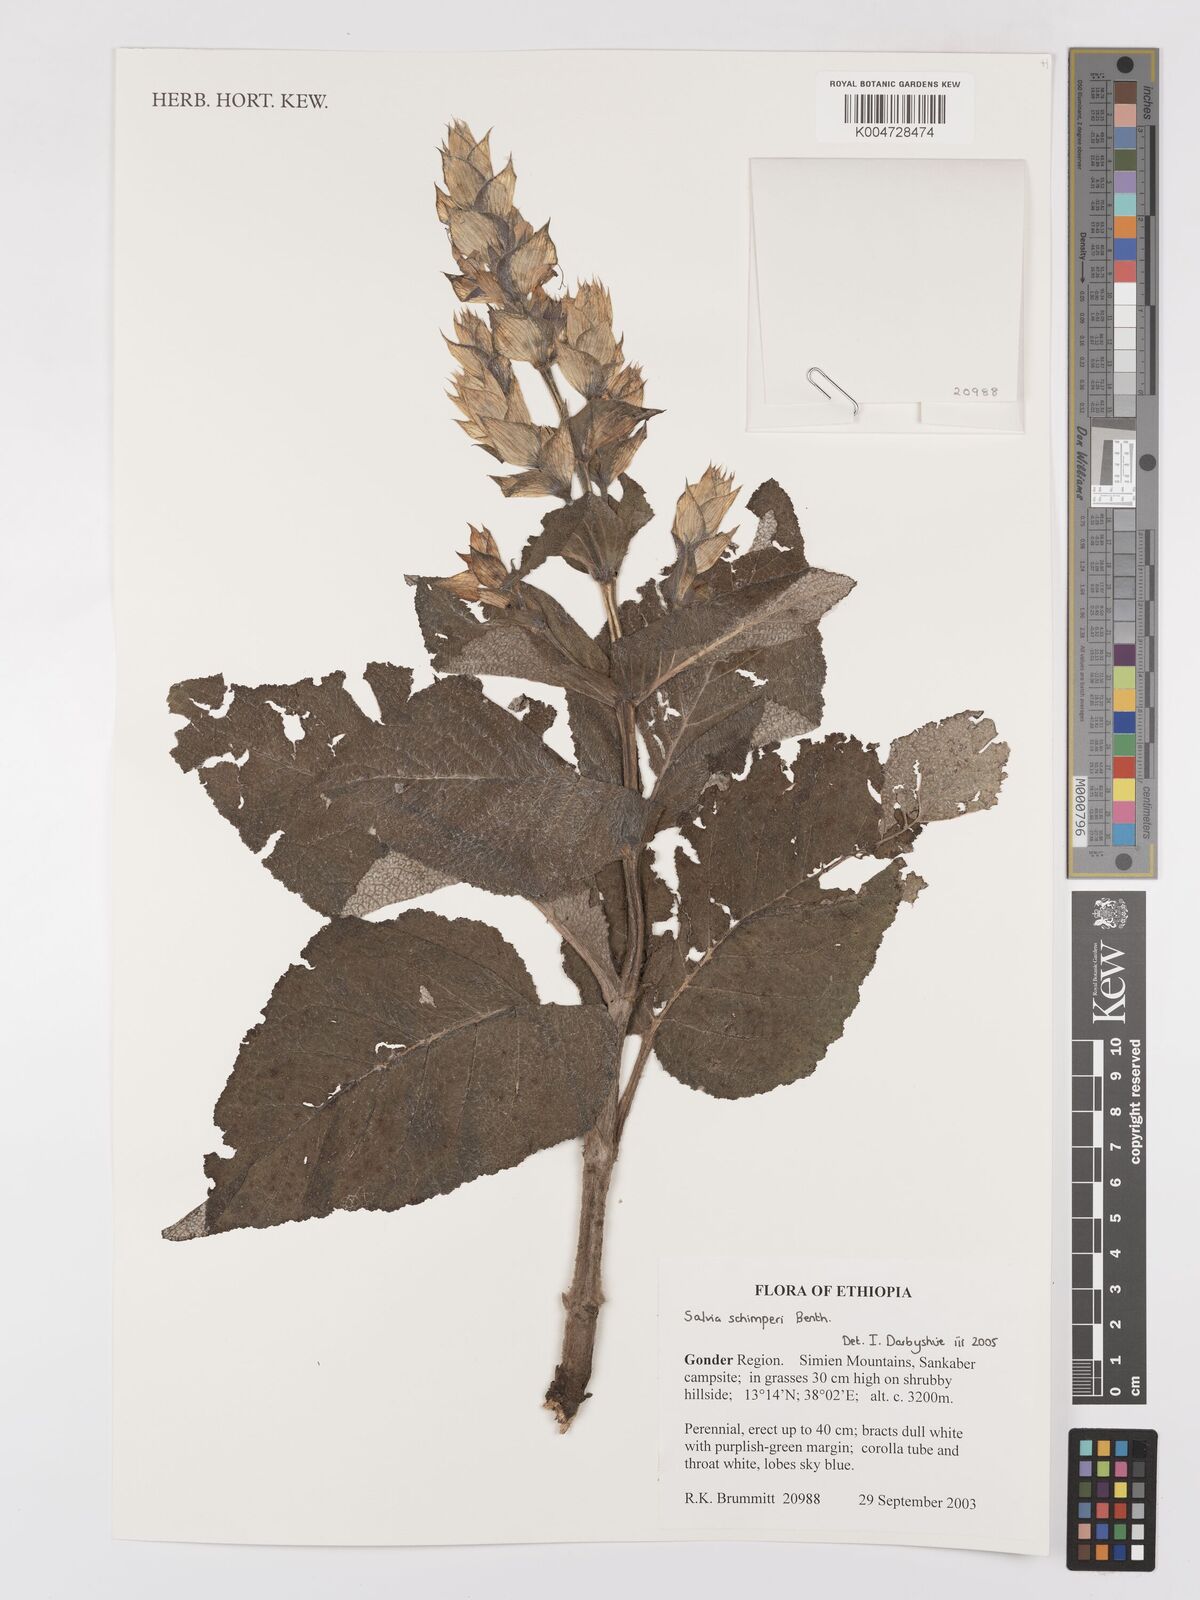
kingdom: Plantae
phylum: Tracheophyta
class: Magnoliopsida
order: Lamiales
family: Lamiaceae
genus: Salvia
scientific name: Salvia schimperi
